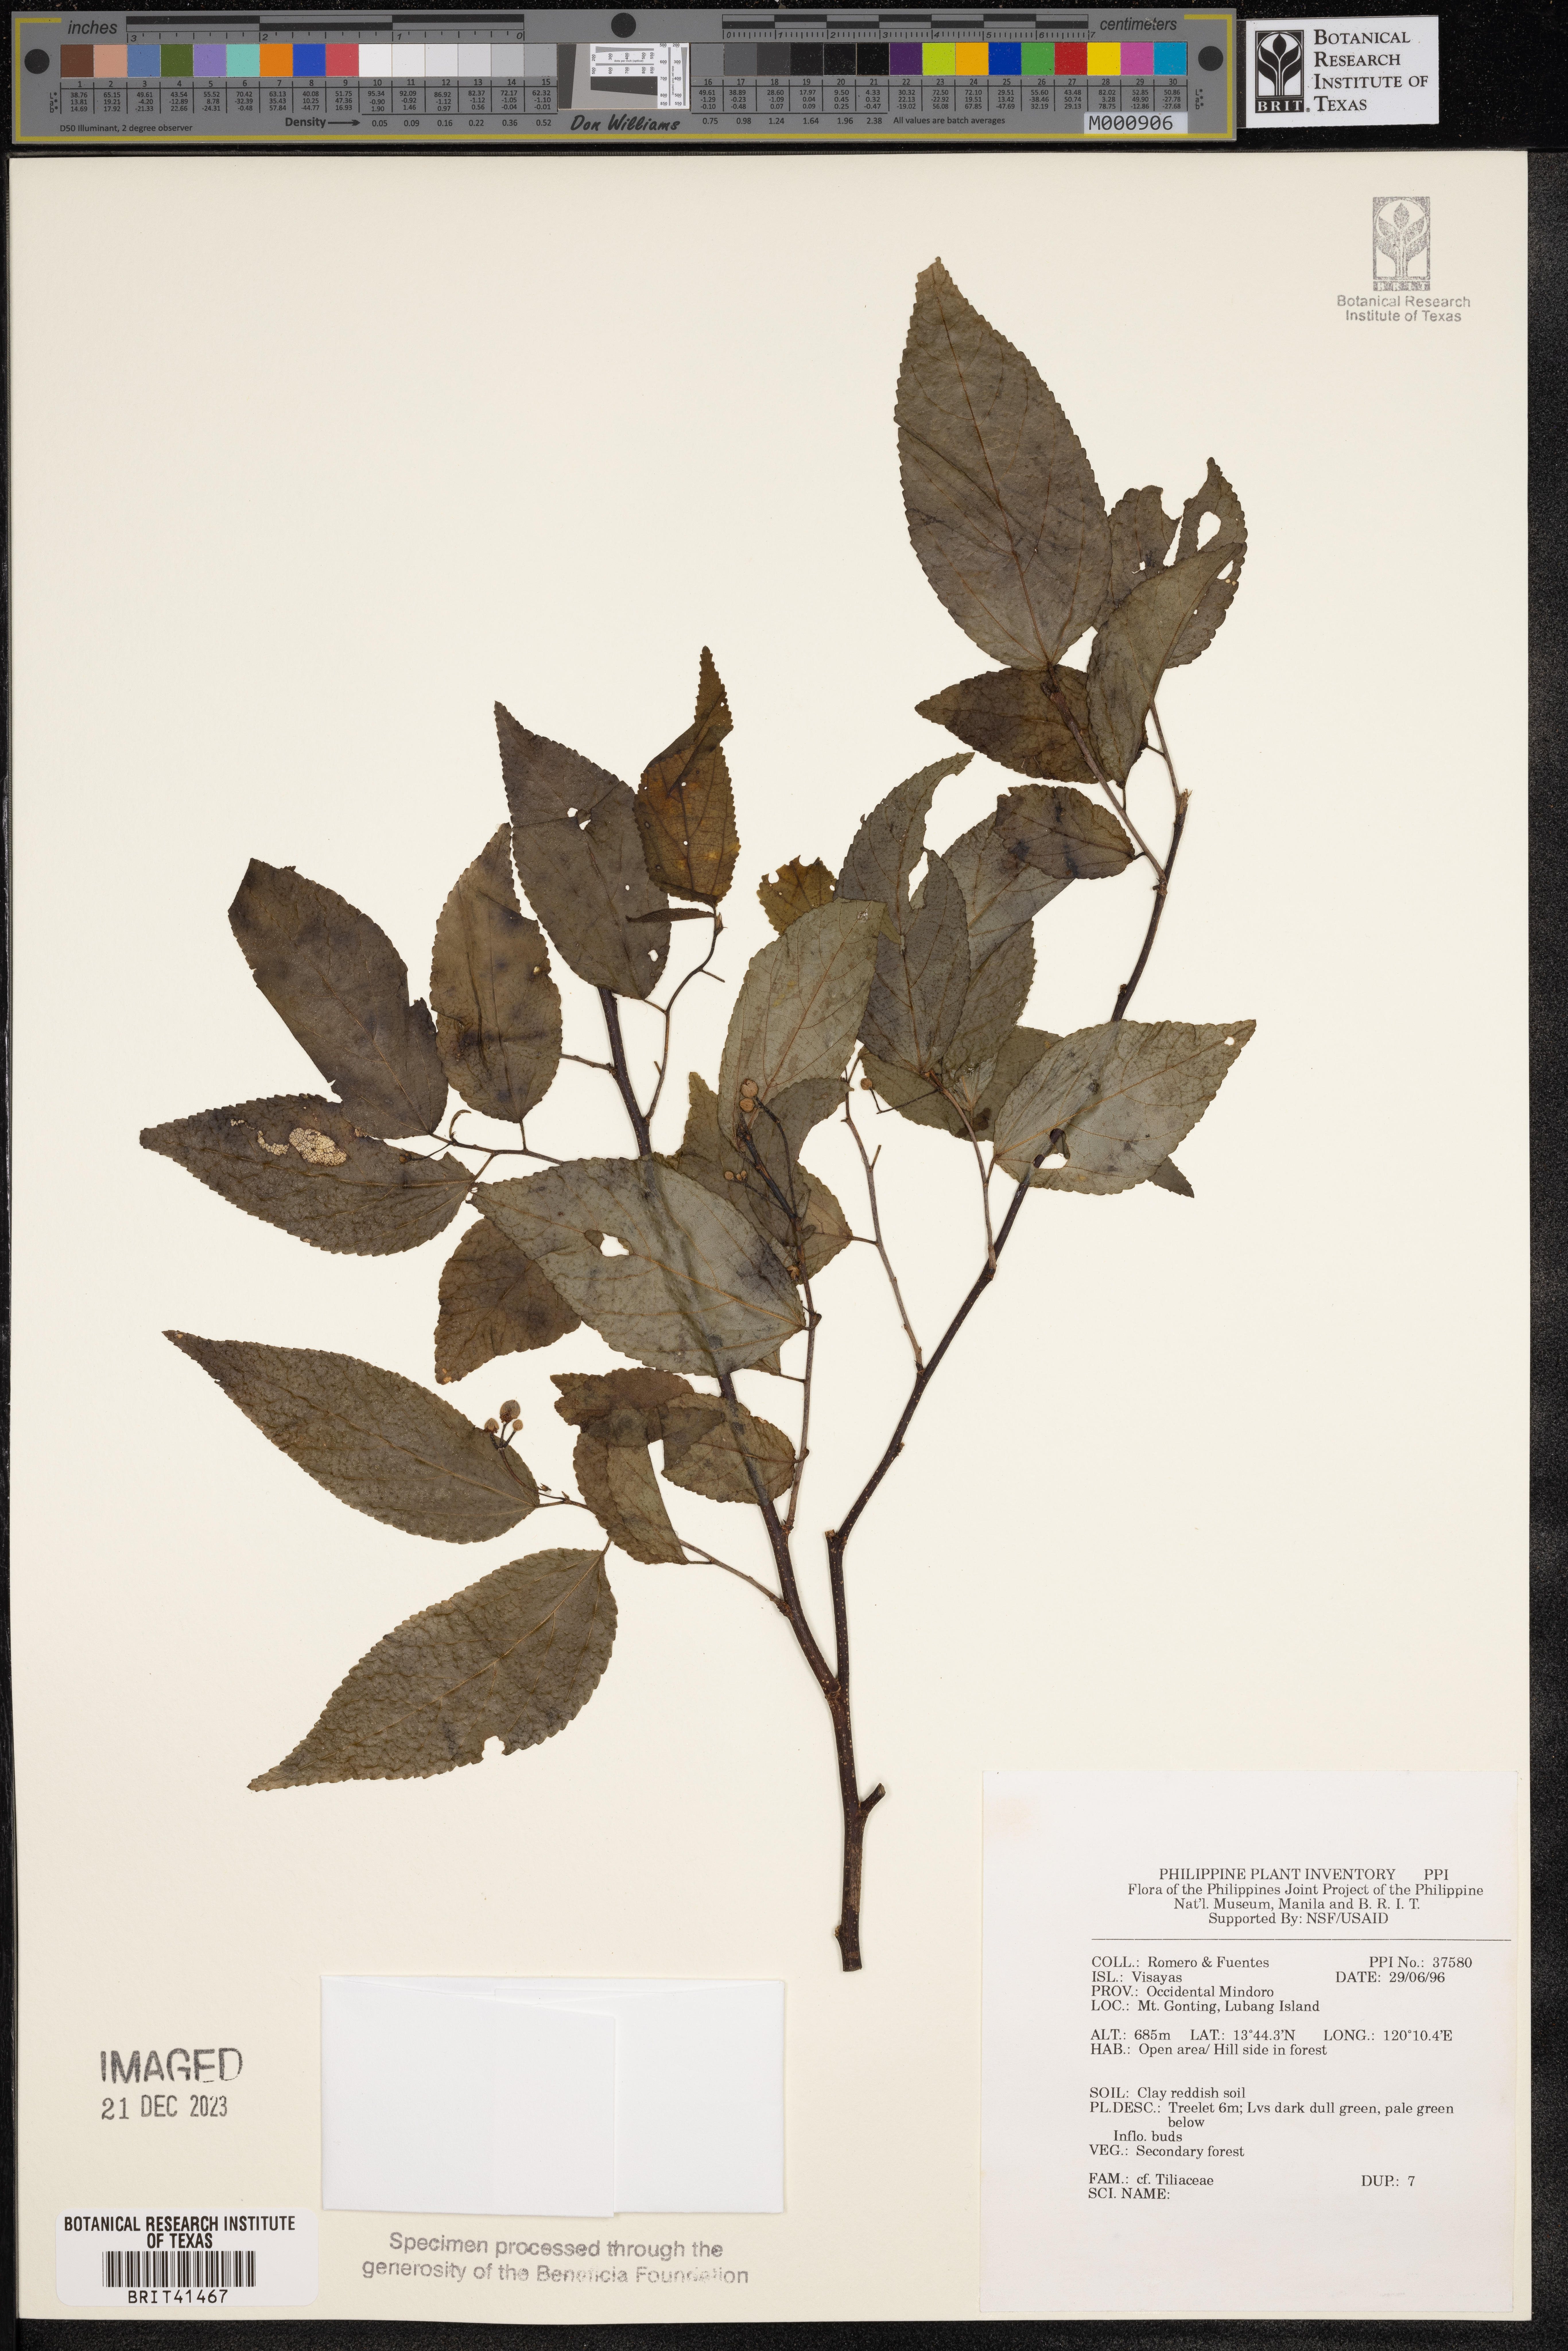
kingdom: Plantae
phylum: Tracheophyta
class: Magnoliopsida
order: Malvales
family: Tiliaceae
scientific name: Tiliaceae
